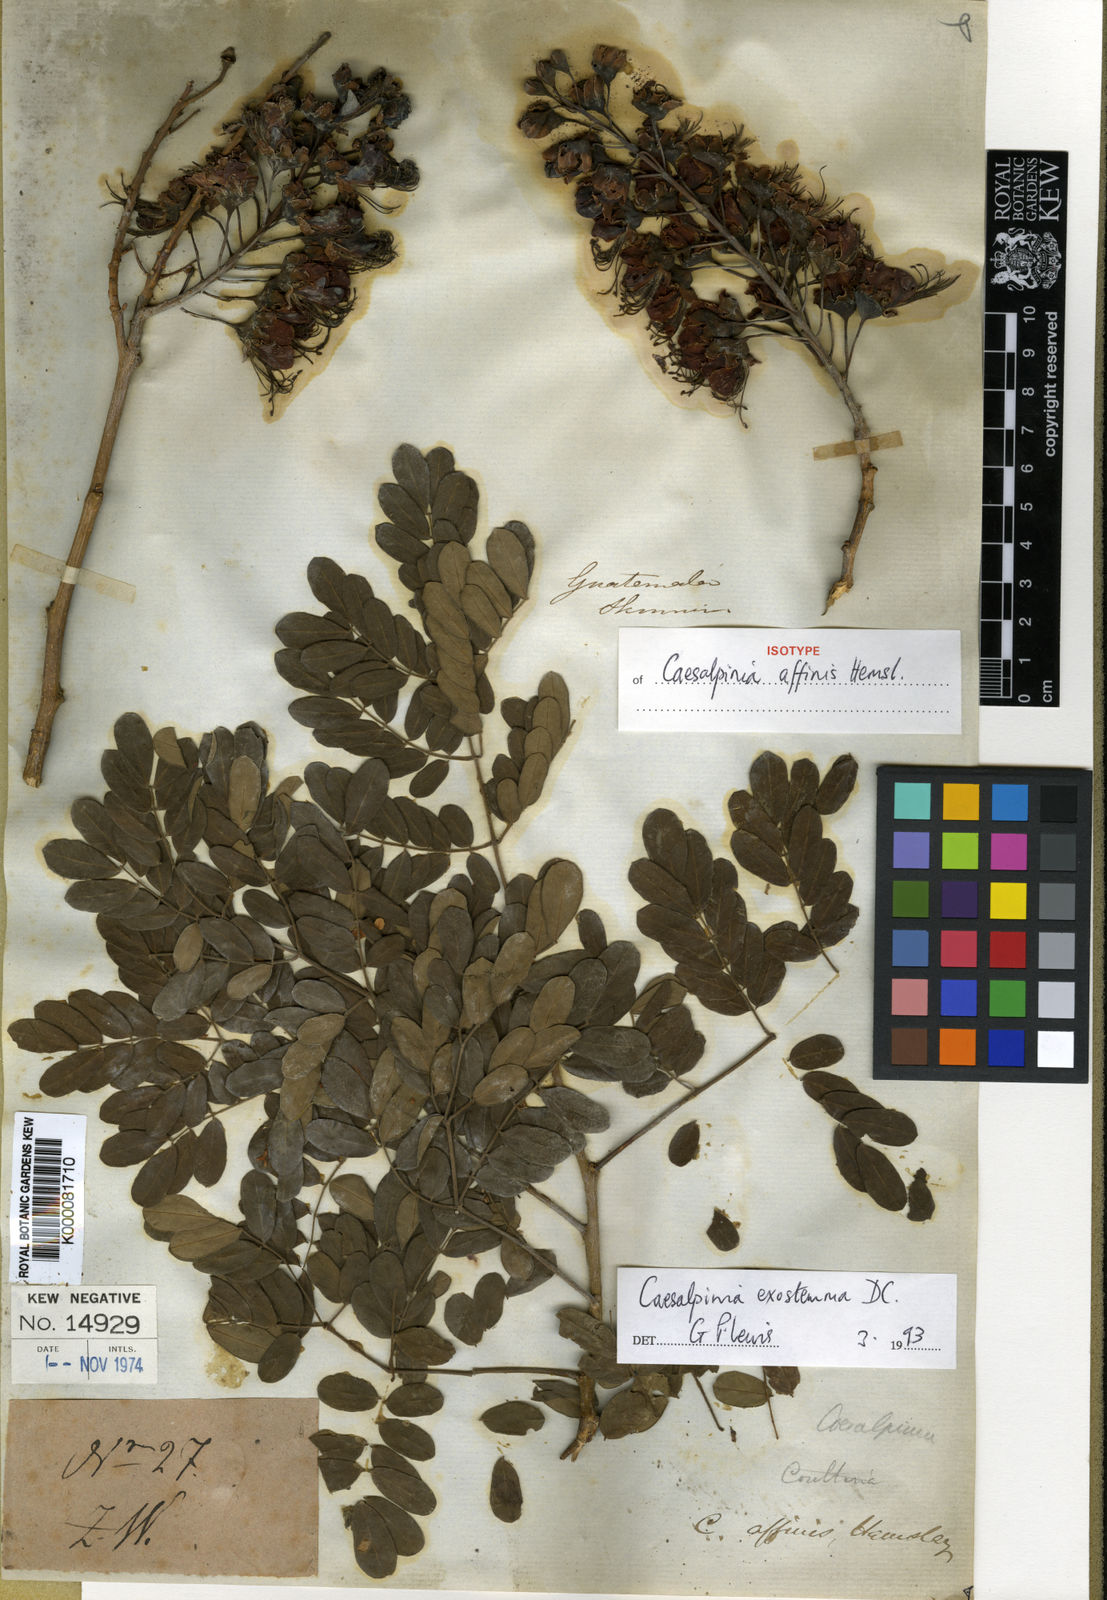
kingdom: Plantae
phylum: Tracheophyta
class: Magnoliopsida
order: Fabales
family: Fabaceae
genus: Erythrostemon
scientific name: Erythrostemon exostemma
